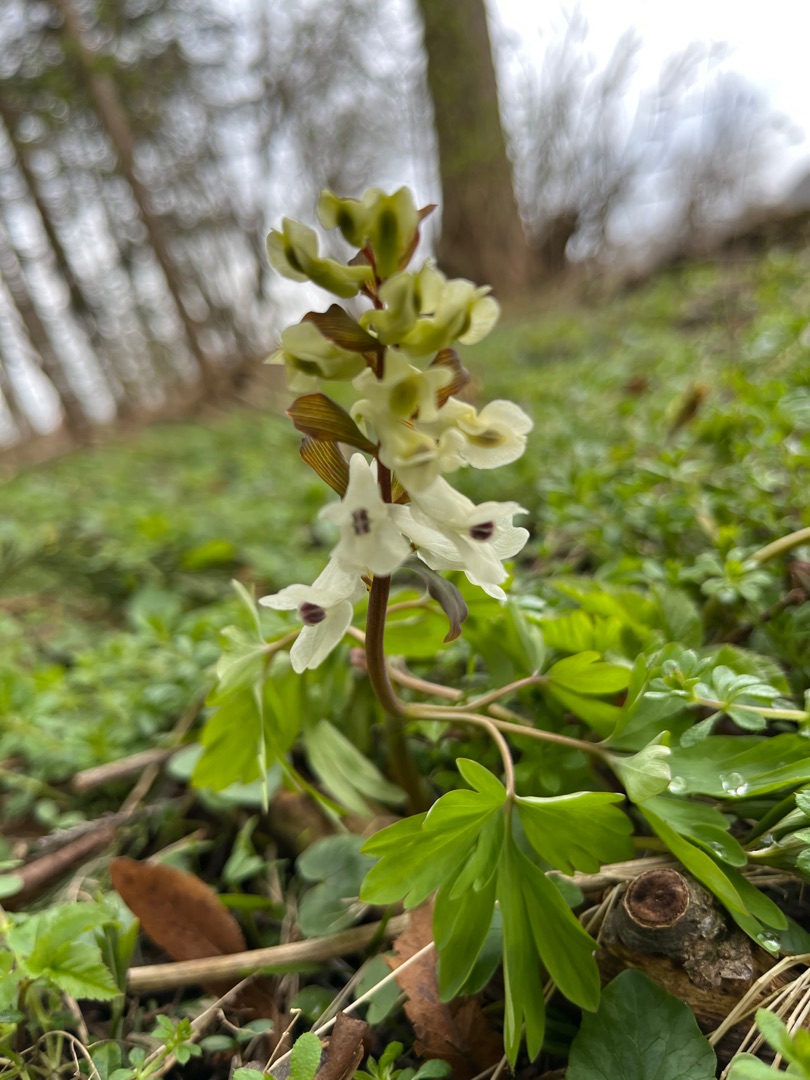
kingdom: Plantae
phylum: Tracheophyta
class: Magnoliopsida
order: Ranunculales
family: Papaveraceae
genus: Corydalis
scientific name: Corydalis cava
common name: Hulrodet lærkespore
